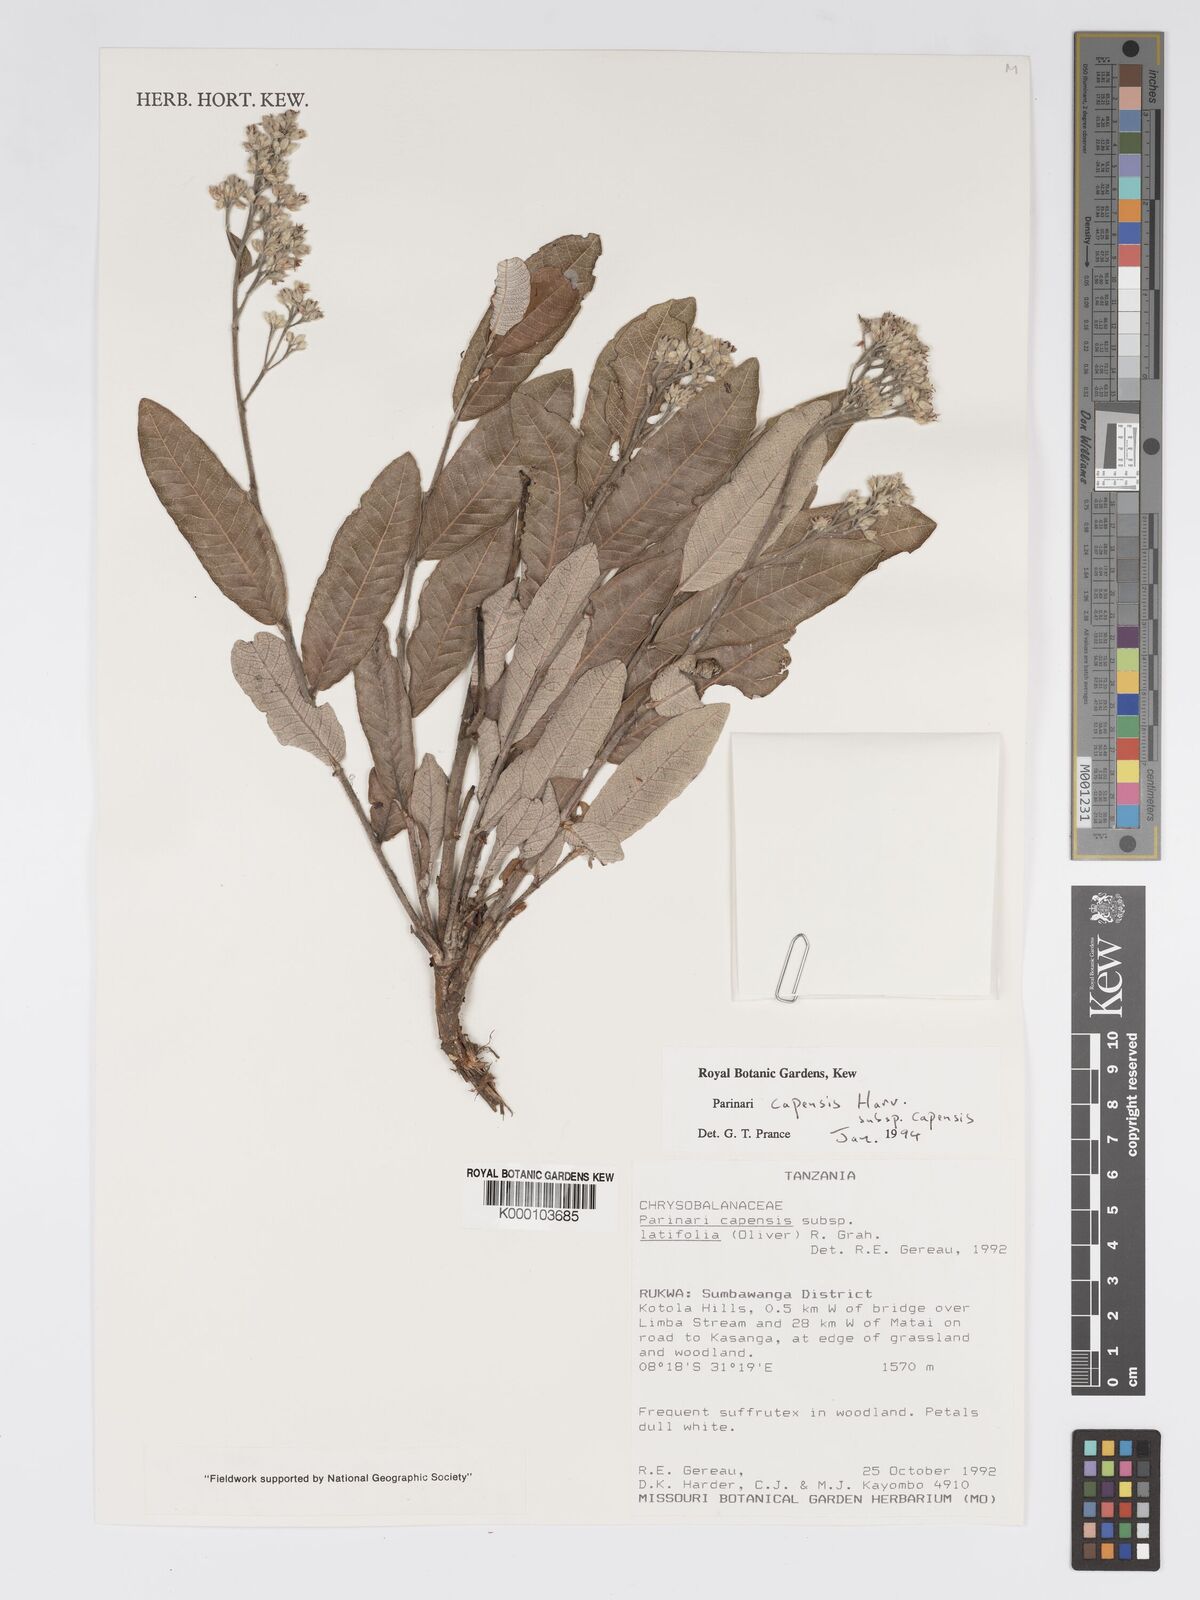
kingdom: Plantae
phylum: Tracheophyta
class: Magnoliopsida
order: Malpighiales
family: Chrysobalanaceae
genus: Parinari
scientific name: Parinari capensis
